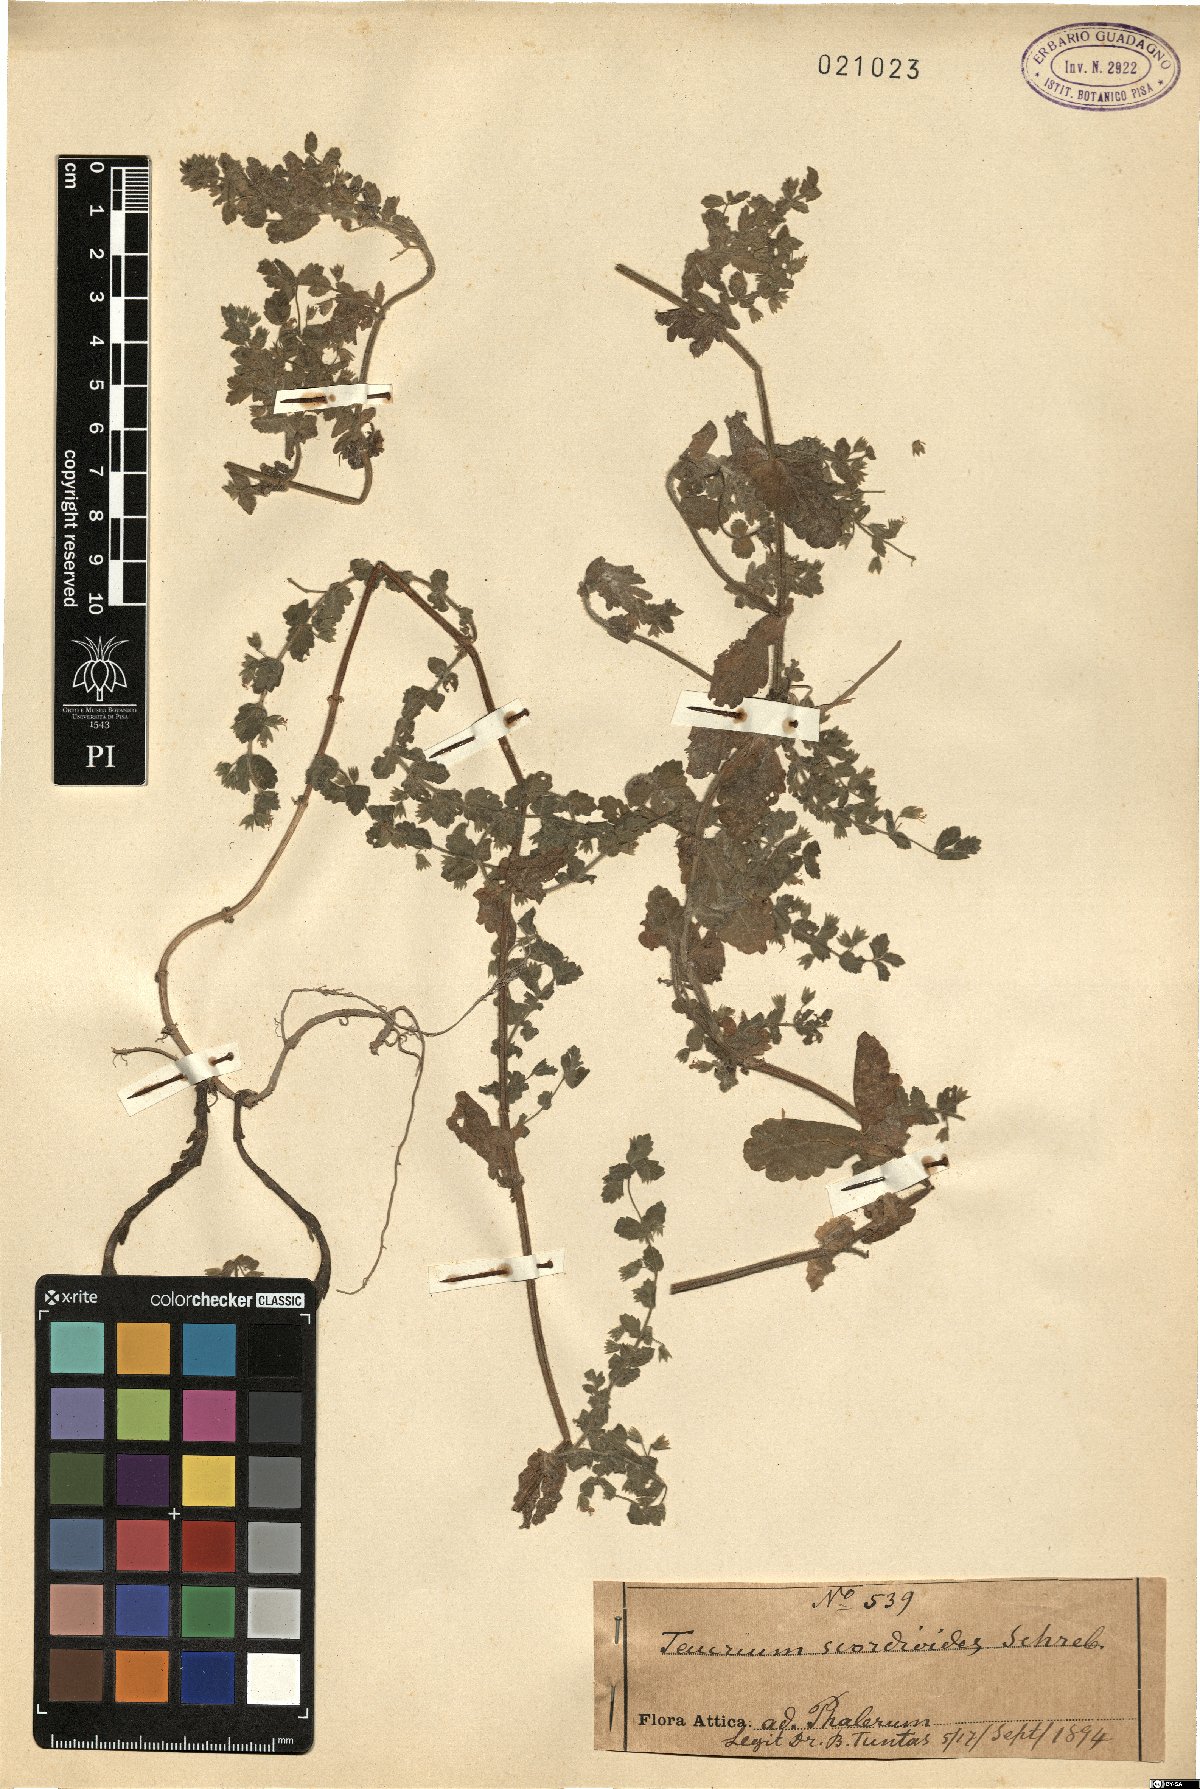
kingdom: Plantae
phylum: Tracheophyta
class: Magnoliopsida
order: Lamiales
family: Lamiaceae
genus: Teucrium
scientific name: Teucrium scordium
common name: Water germander
